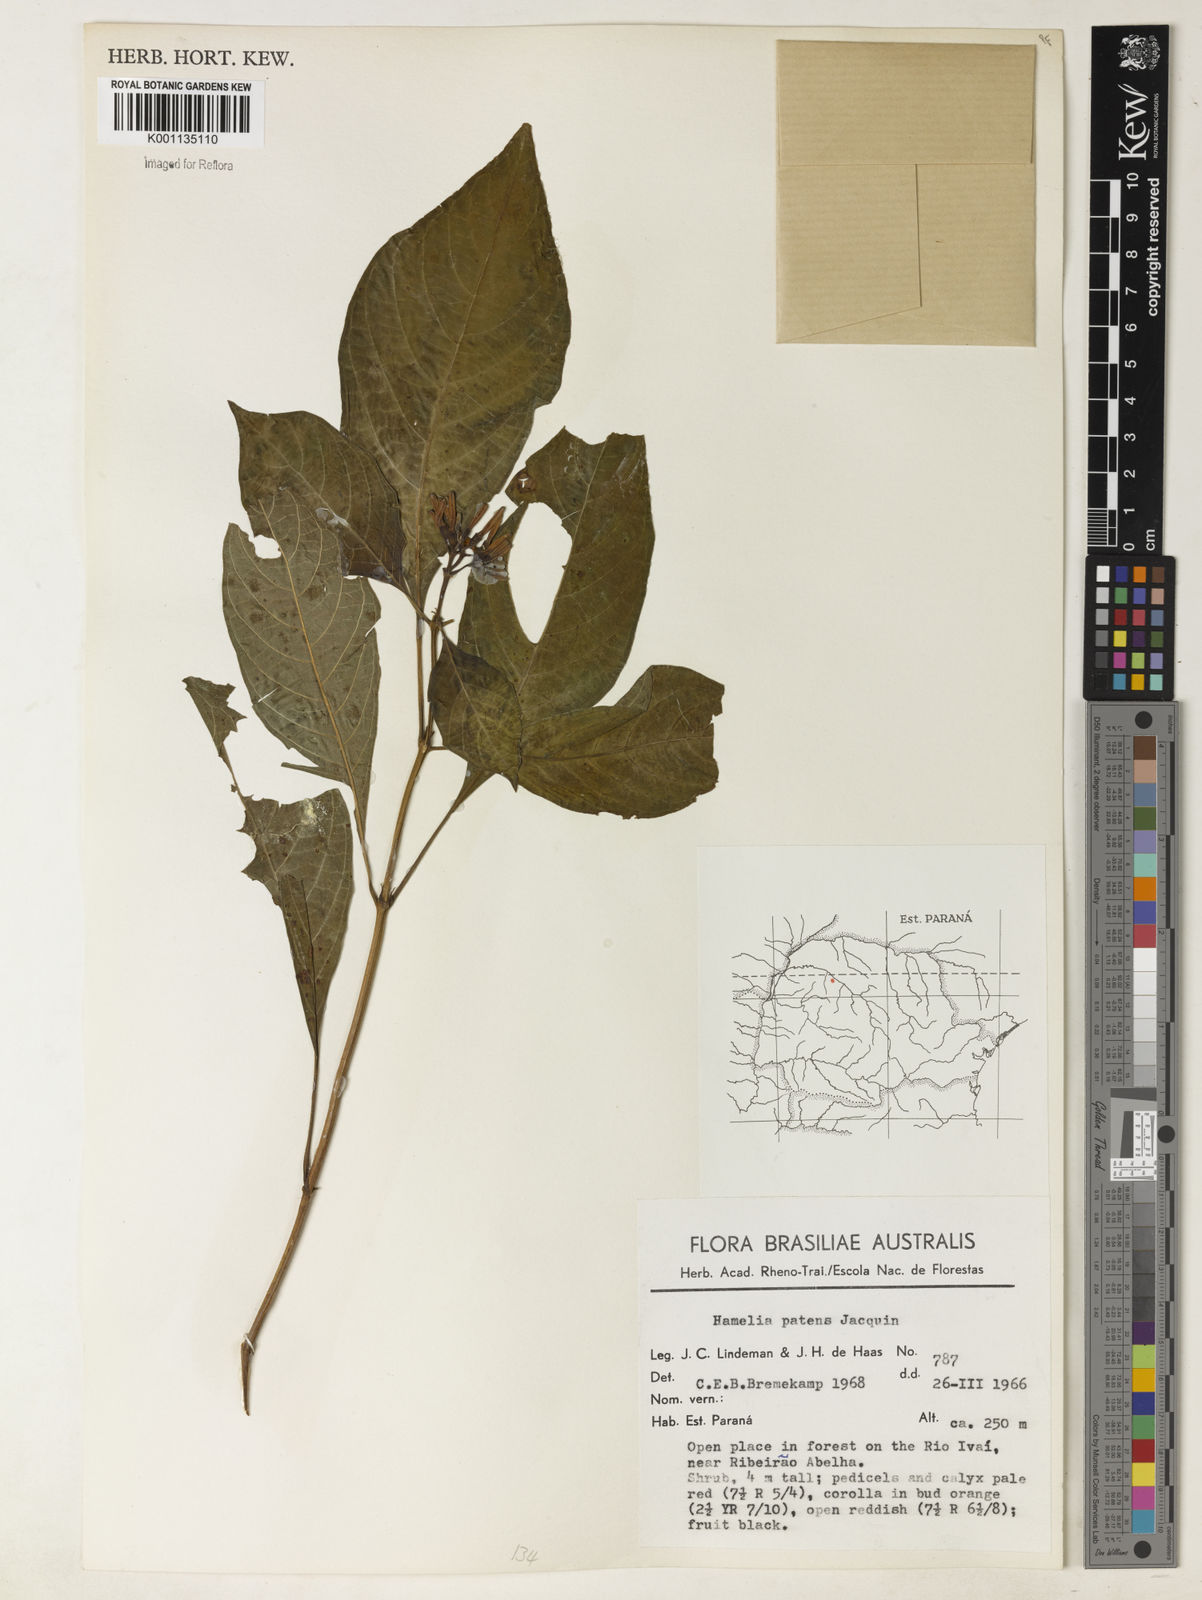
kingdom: Plantae
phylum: Tracheophyta
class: Magnoliopsida
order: Gentianales
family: Rubiaceae
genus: Hamelia
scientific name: Hamelia patens
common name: Redhead
